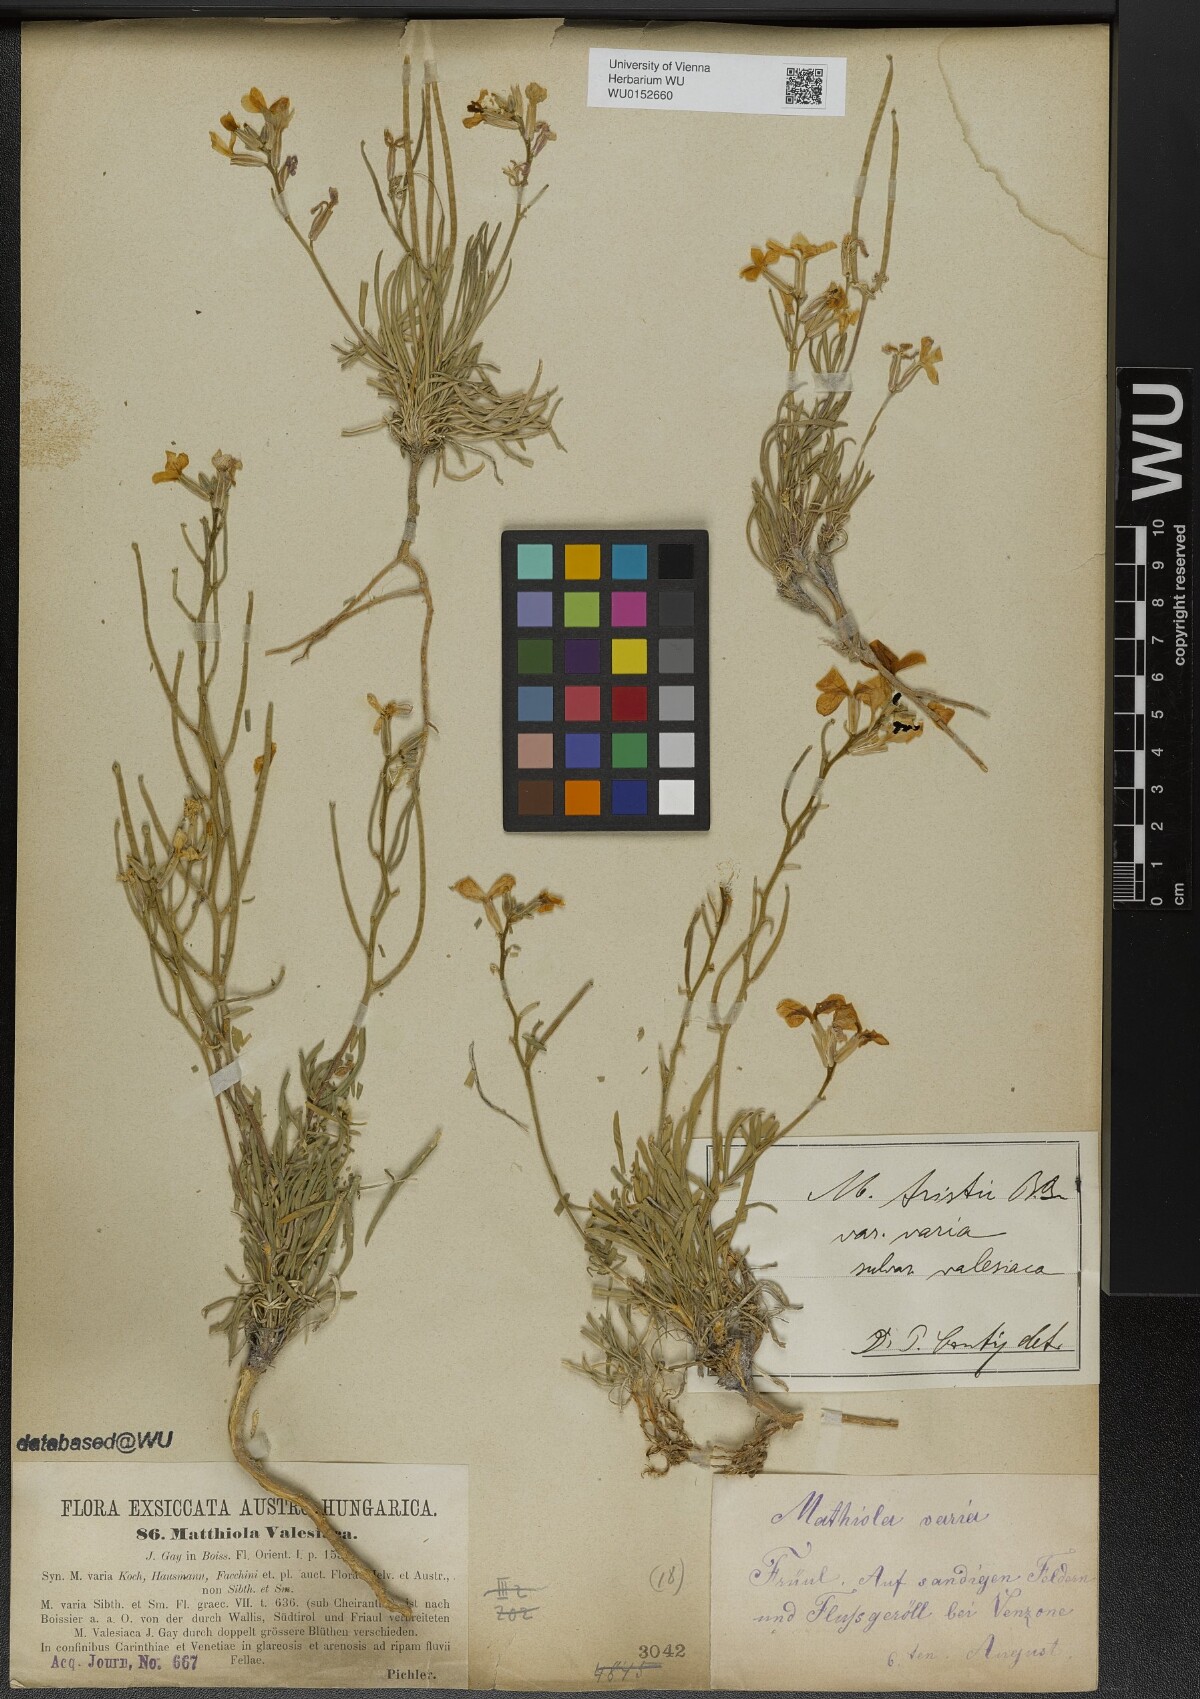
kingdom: Plantae
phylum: Tracheophyta
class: Magnoliopsida
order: Brassicales
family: Brassicaceae
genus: Matthiola
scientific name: Matthiola fruticulosa
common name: Sad stock
